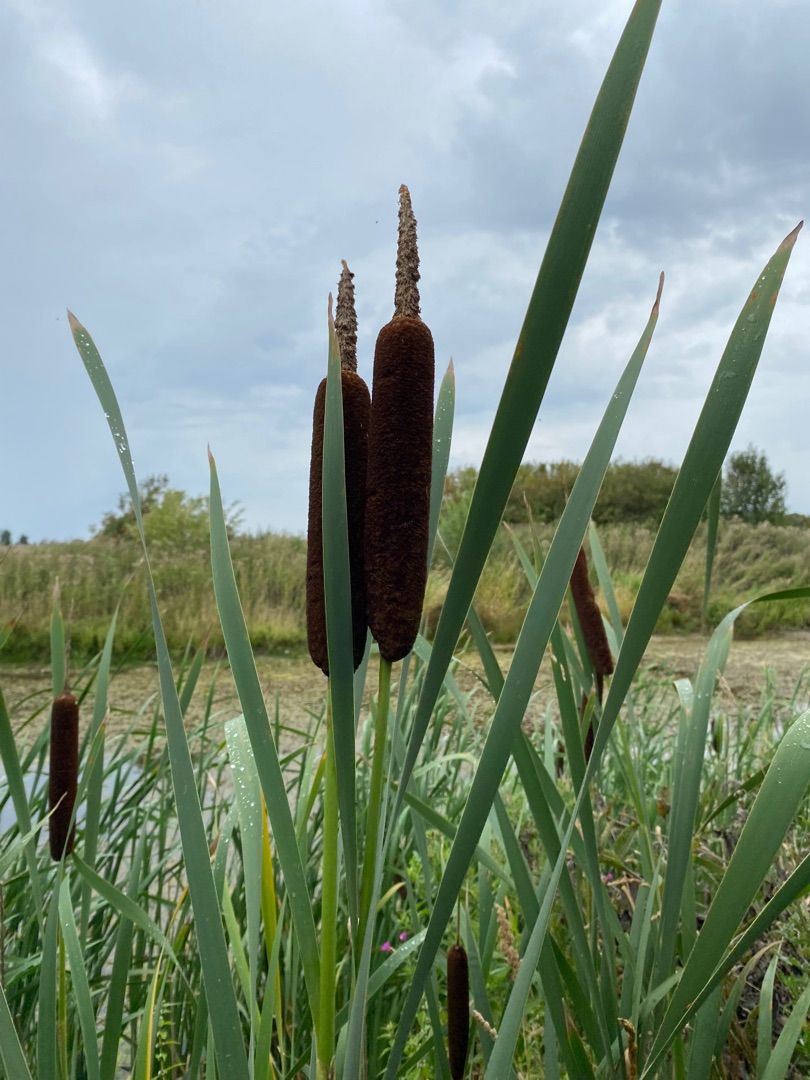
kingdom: Plantae
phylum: Tracheophyta
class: Liliopsida
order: Poales
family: Typhaceae
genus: Typha
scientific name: Typha latifolia
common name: Bredbladet dunhammer
